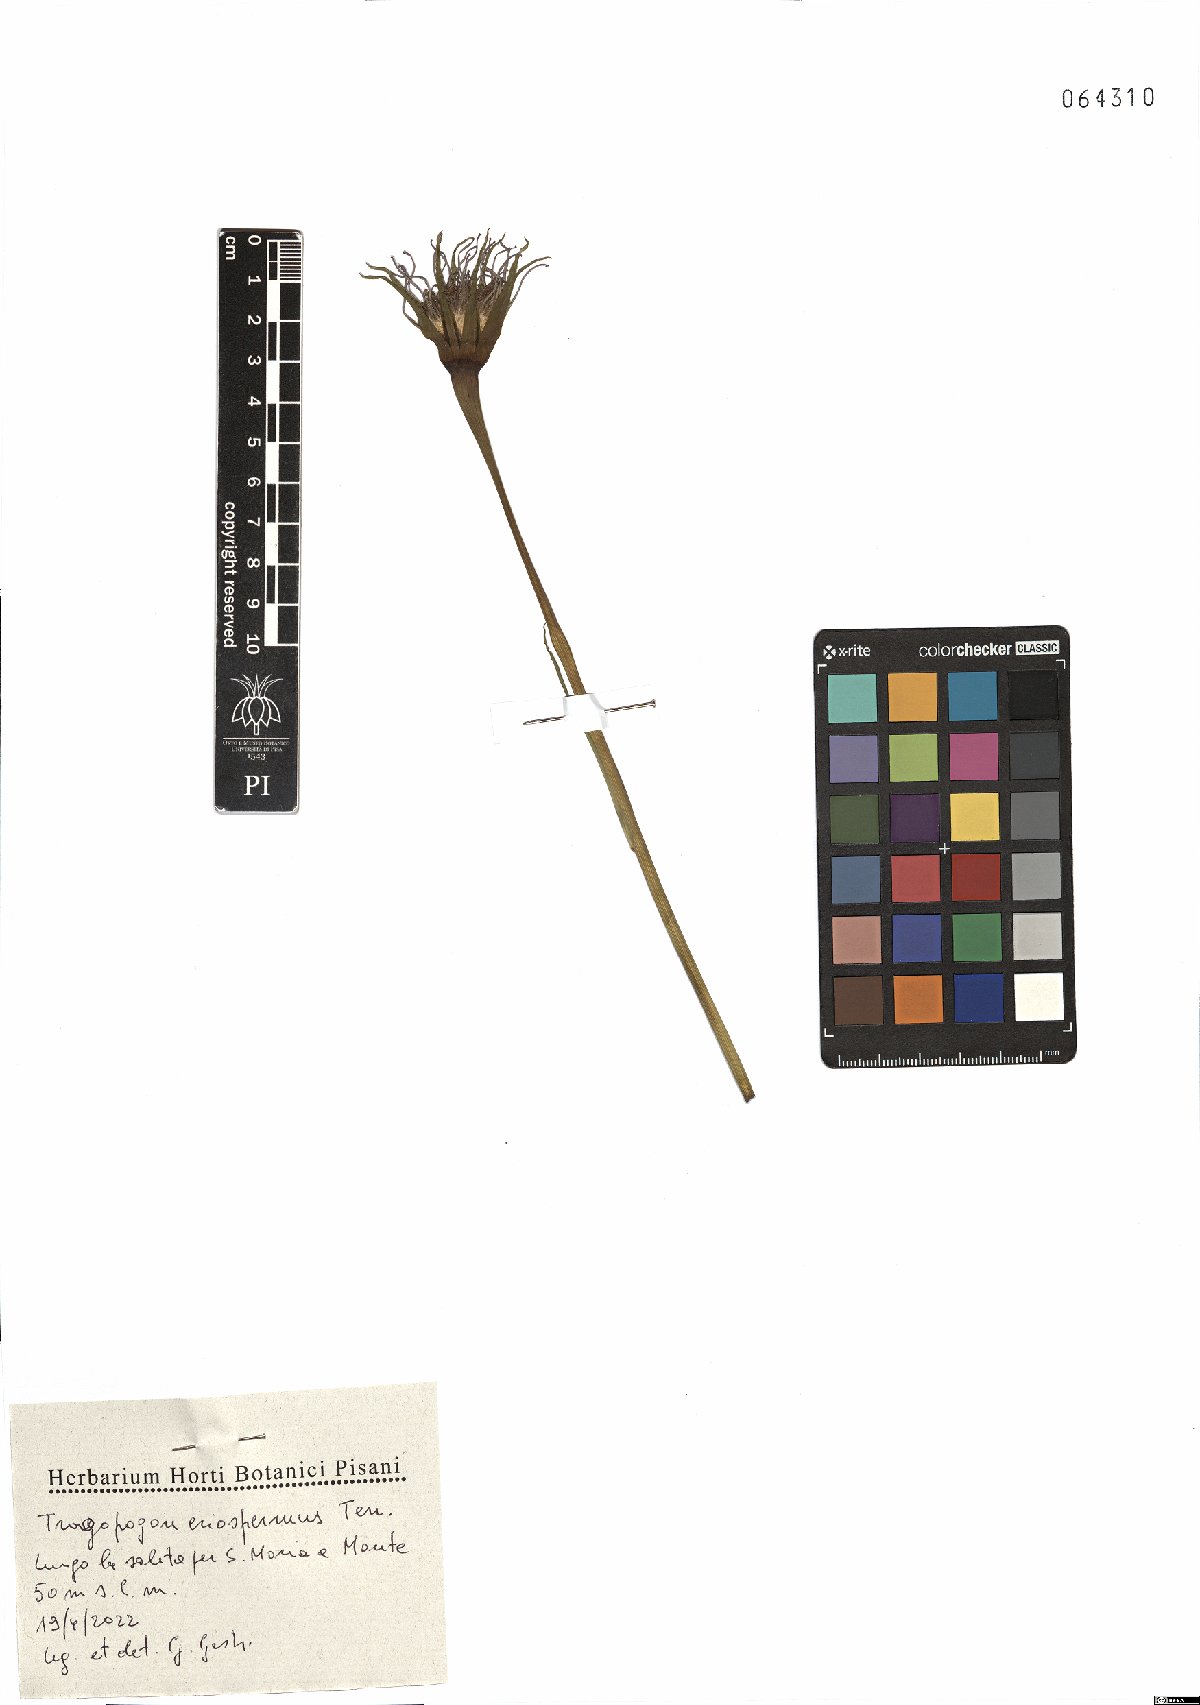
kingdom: Plantae
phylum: Tracheophyta
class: Magnoliopsida
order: Asterales
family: Asteraceae
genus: Tragopogon
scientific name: Tragopogon porrifolius
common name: Salsify
